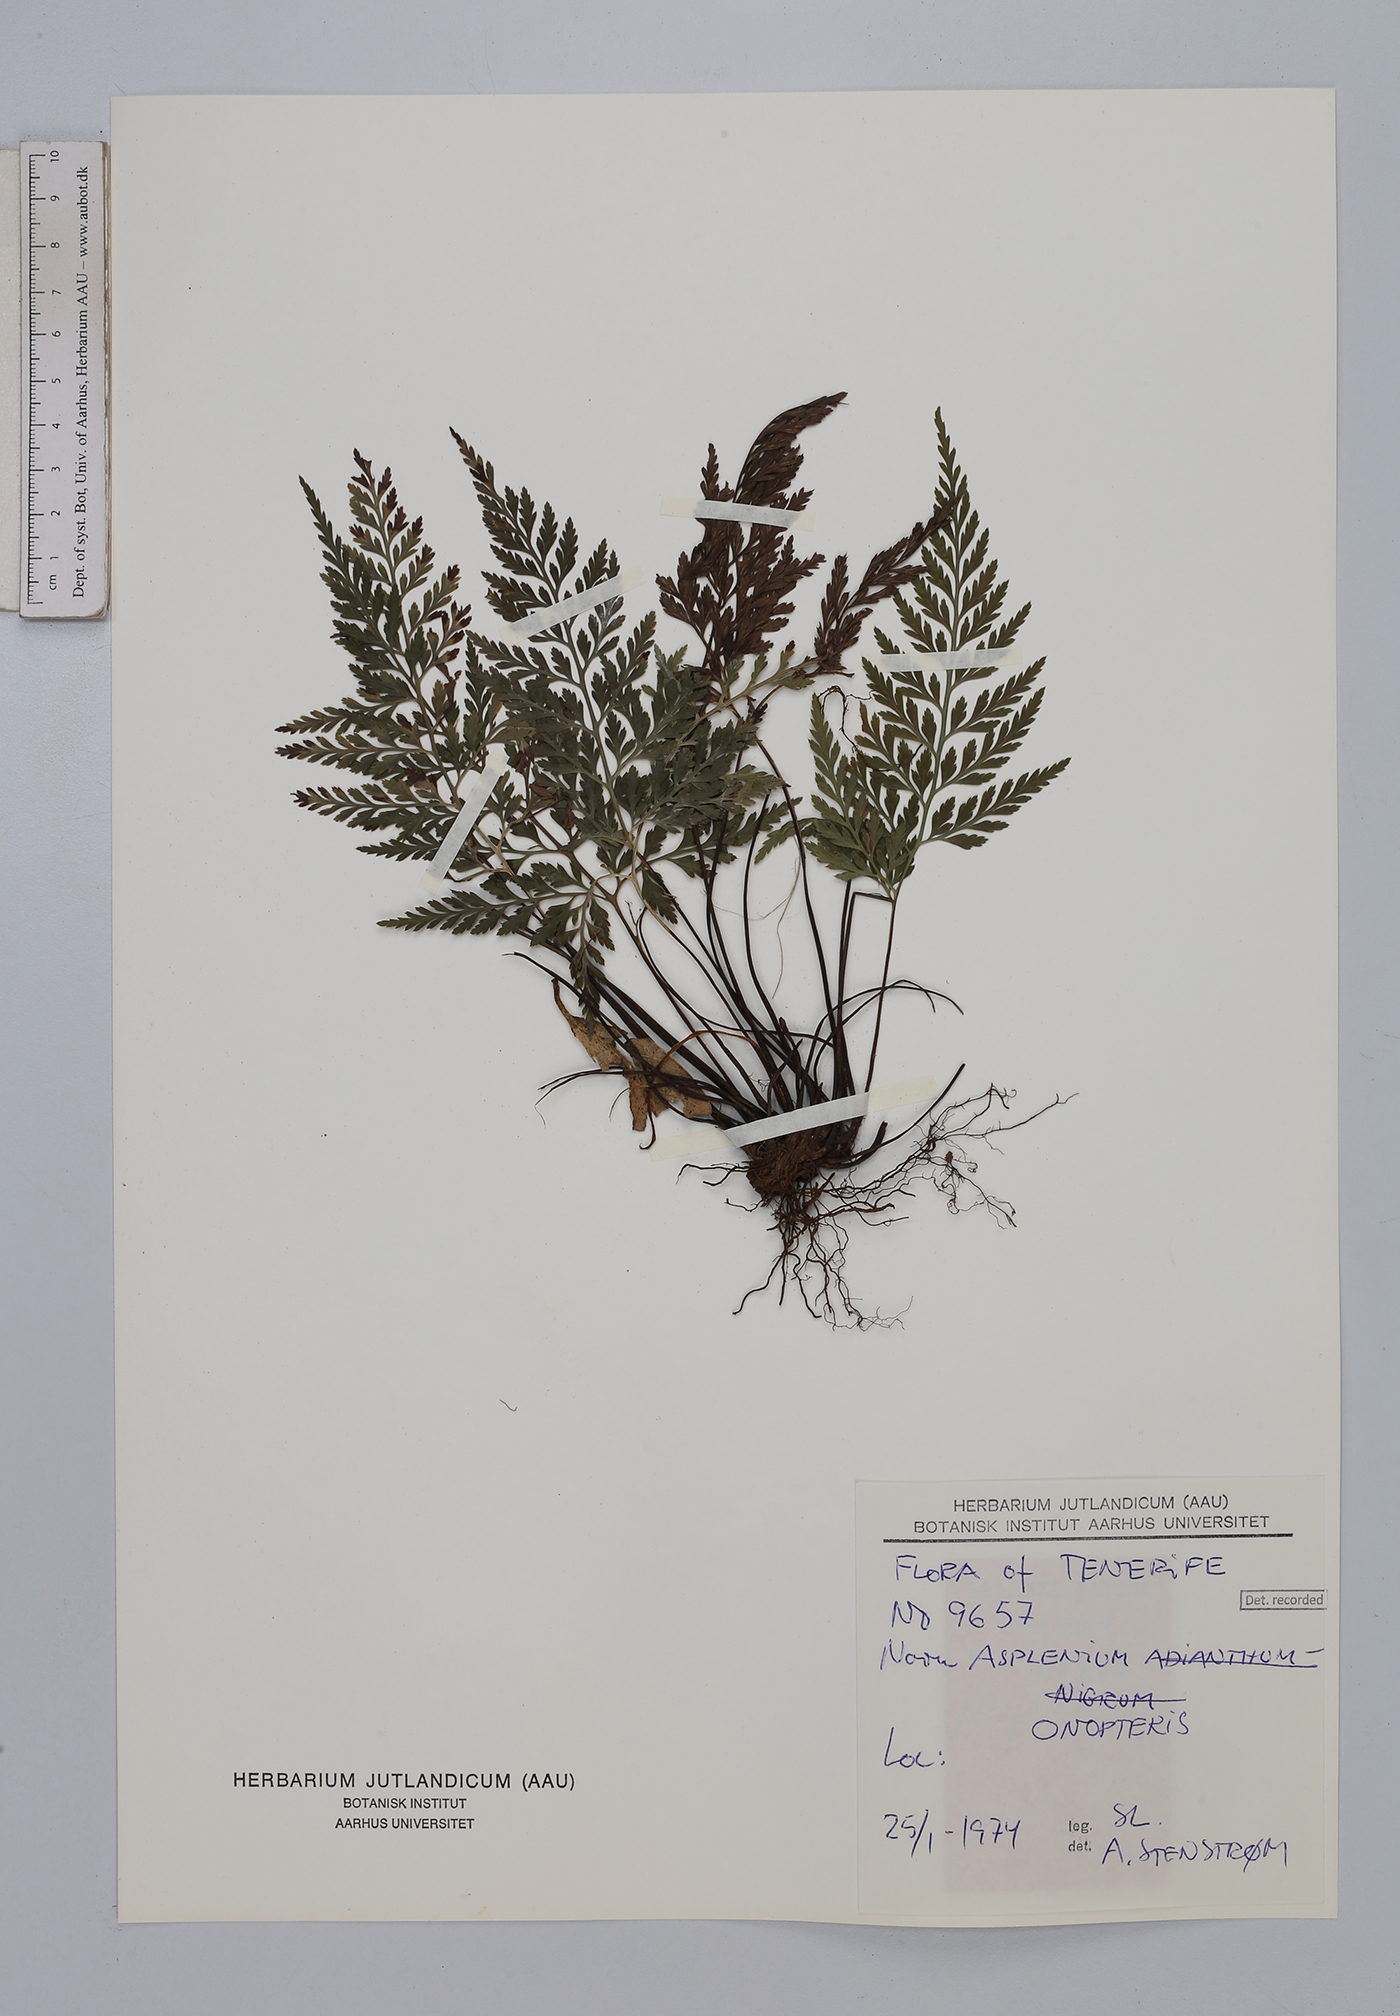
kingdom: Plantae
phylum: Tracheophyta
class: Polypodiopsida
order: Polypodiales
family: Aspleniaceae
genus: Asplenium
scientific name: Asplenium onopteris
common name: Irish spleenwort
